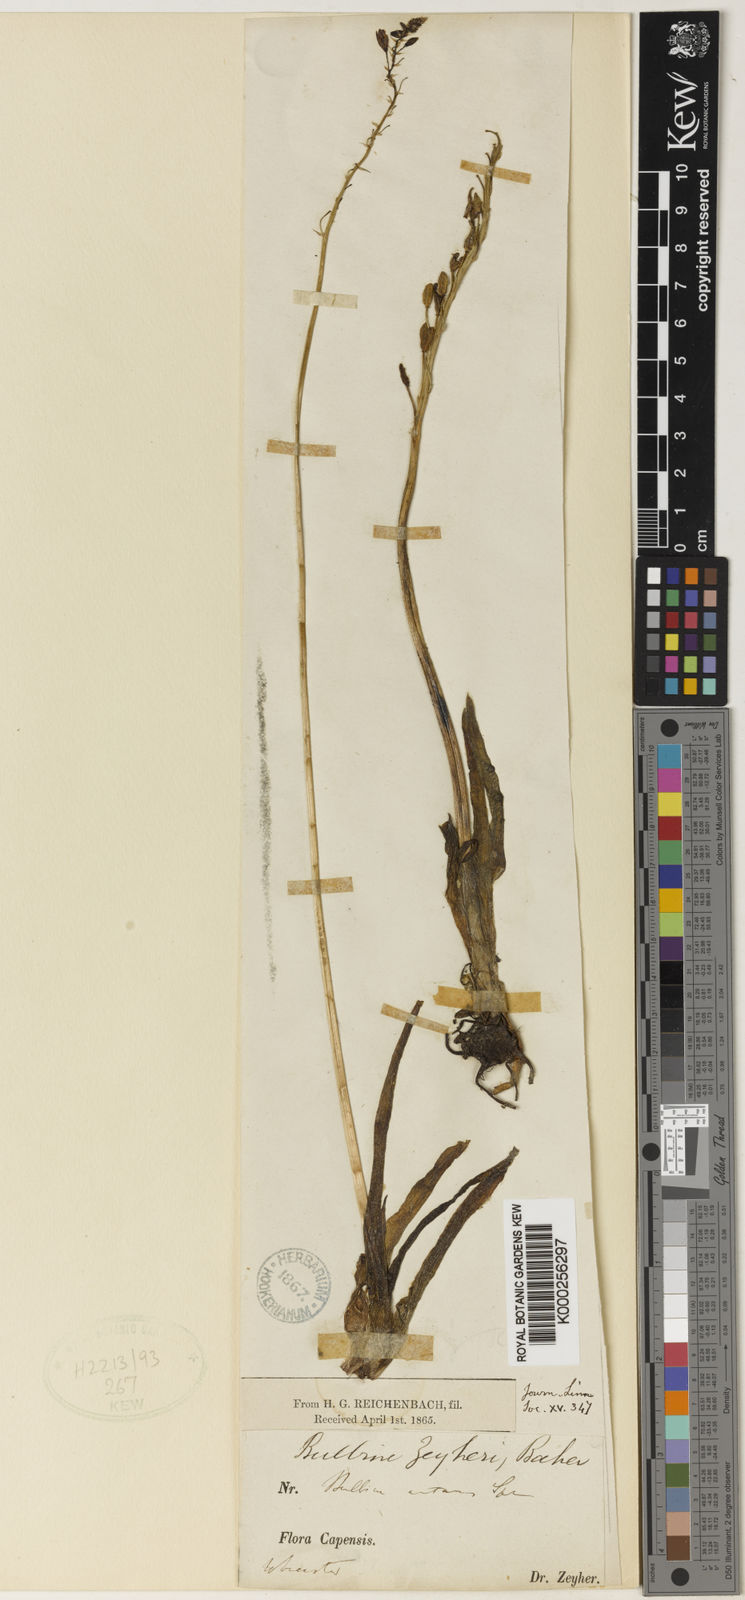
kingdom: Plantae
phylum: Tracheophyta
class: Liliopsida
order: Asparagales
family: Asphodelaceae
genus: Bulbine
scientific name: Bulbine alooides
